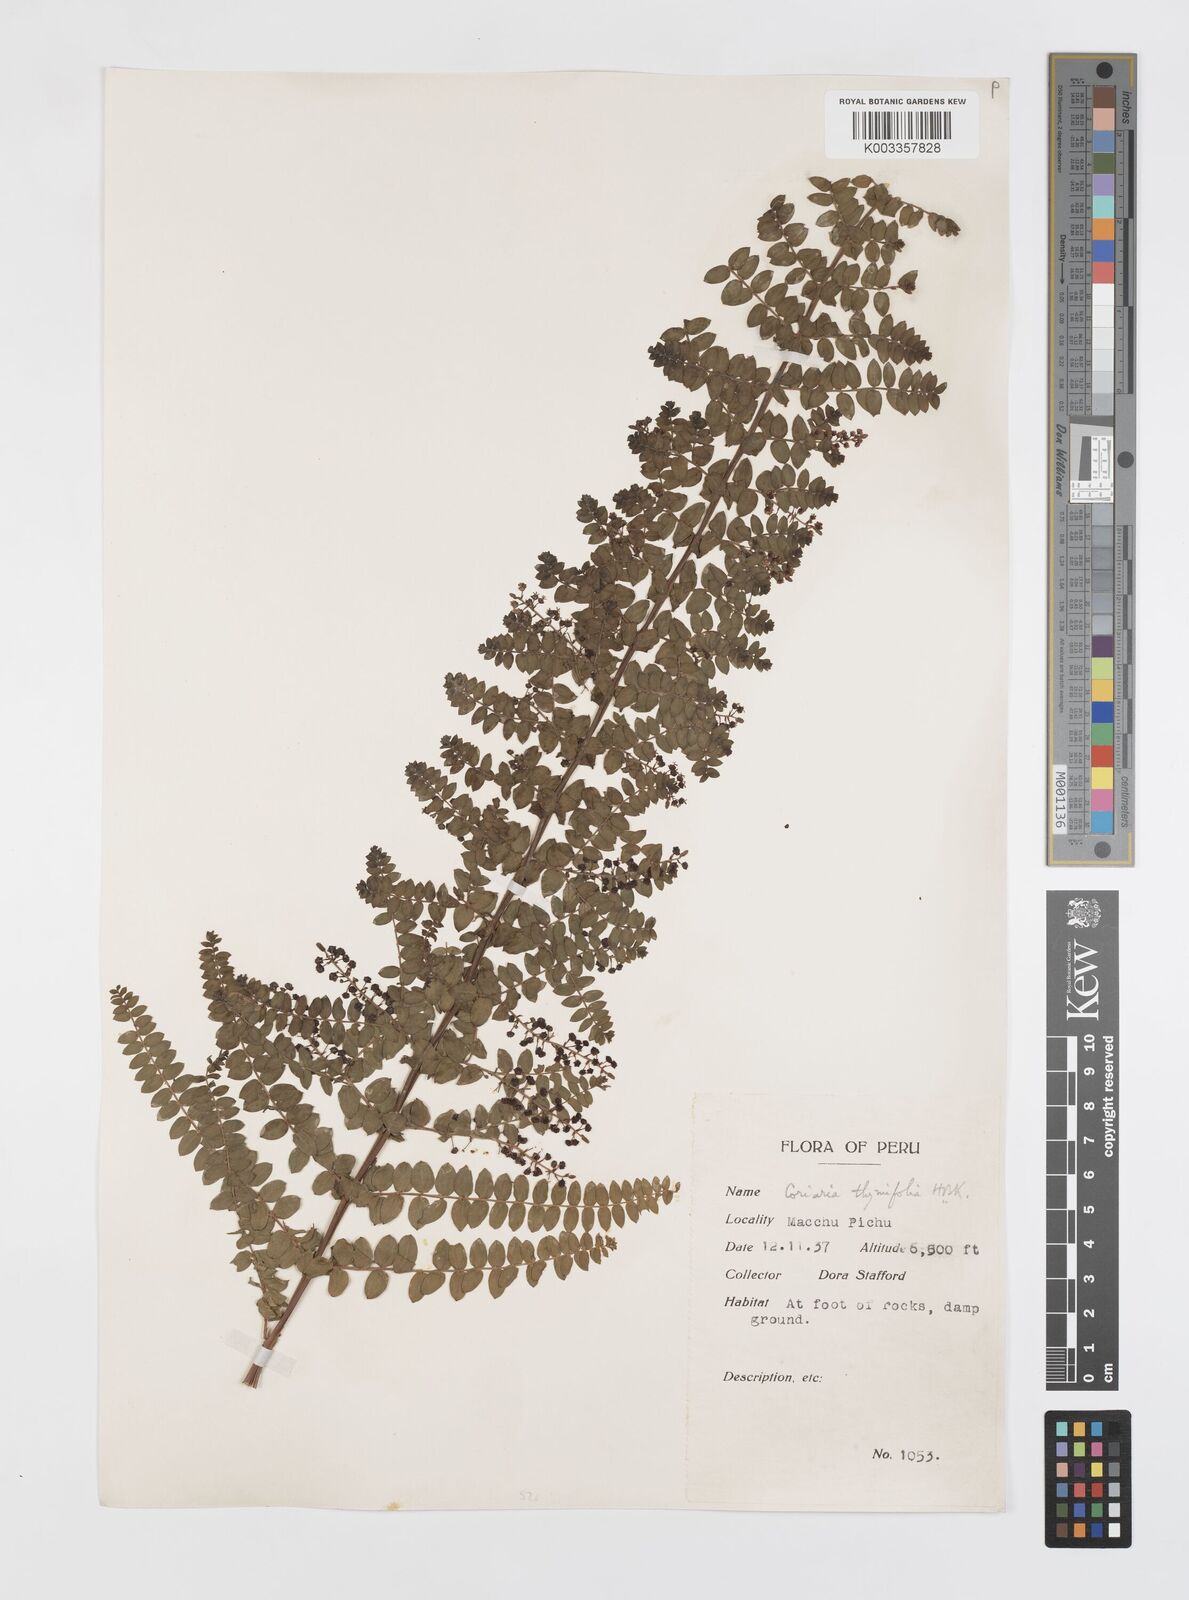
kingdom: Plantae
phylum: Tracheophyta
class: Magnoliopsida
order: Cucurbitales
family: Coriariaceae
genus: Coriaria
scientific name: Coriaria microphylla
